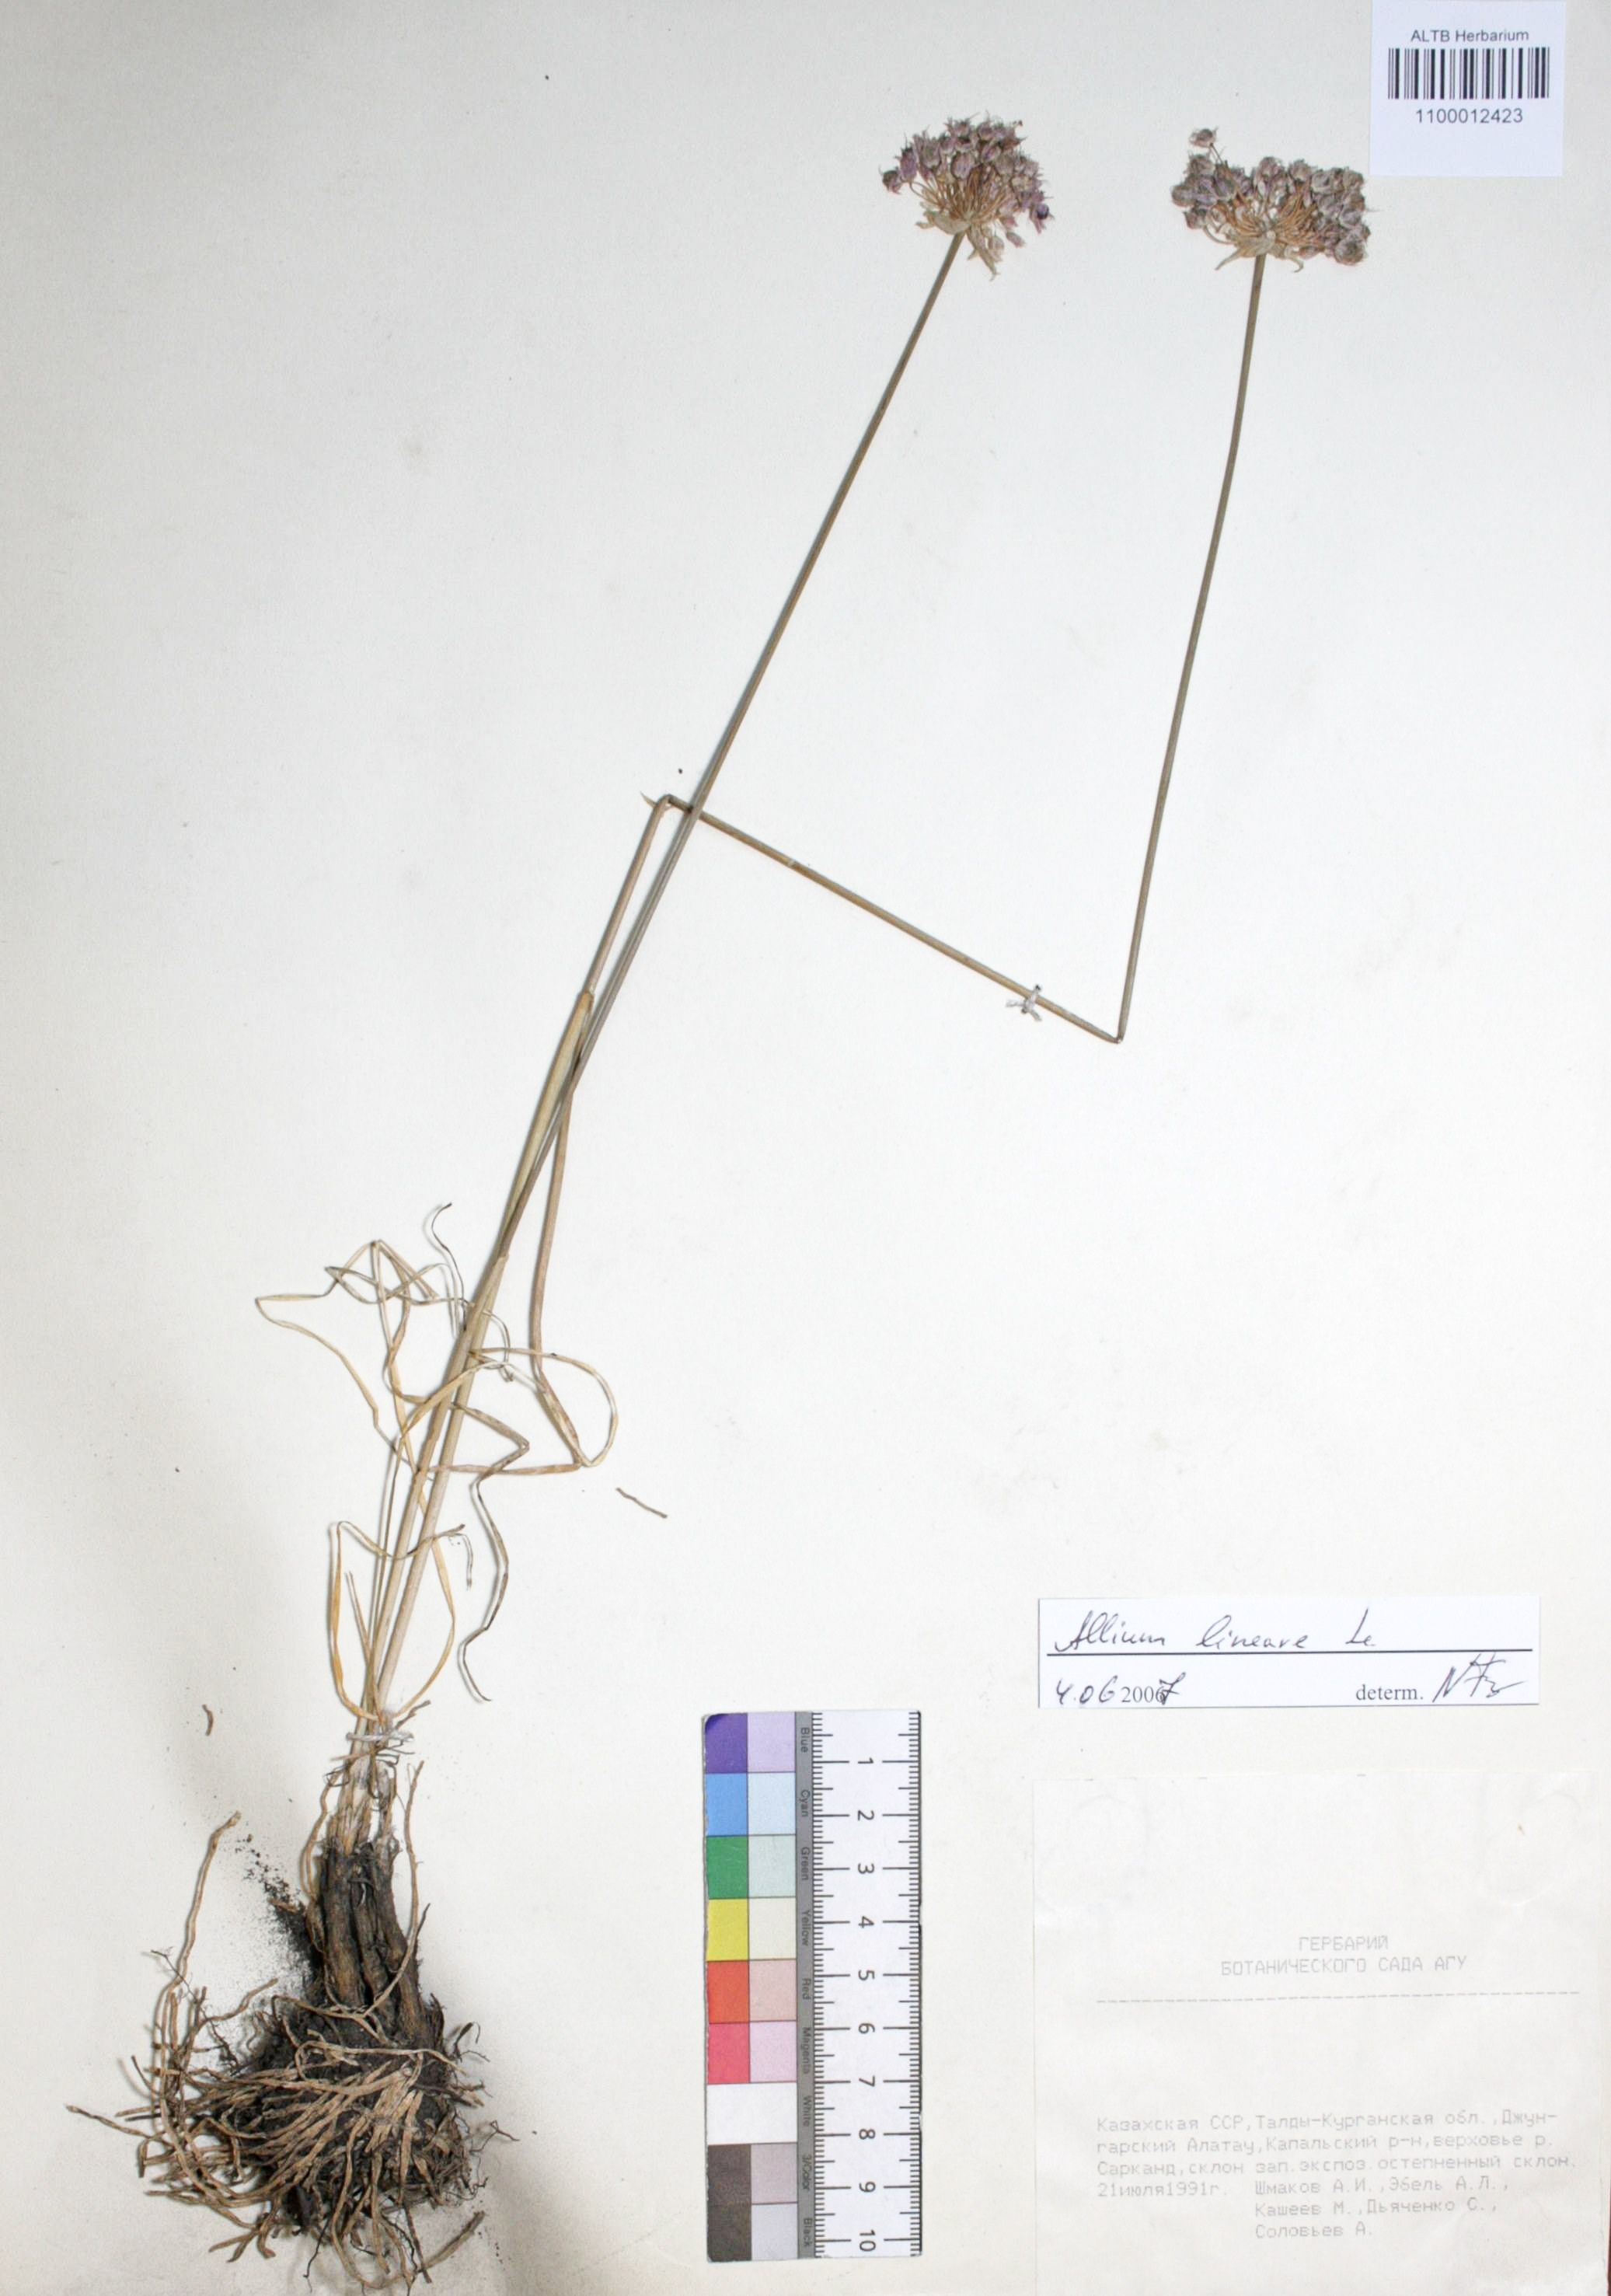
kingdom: Plantae
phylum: Tracheophyta
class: Liliopsida
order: Asparagales
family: Amaryllidaceae
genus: Allium
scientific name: Allium lineare
